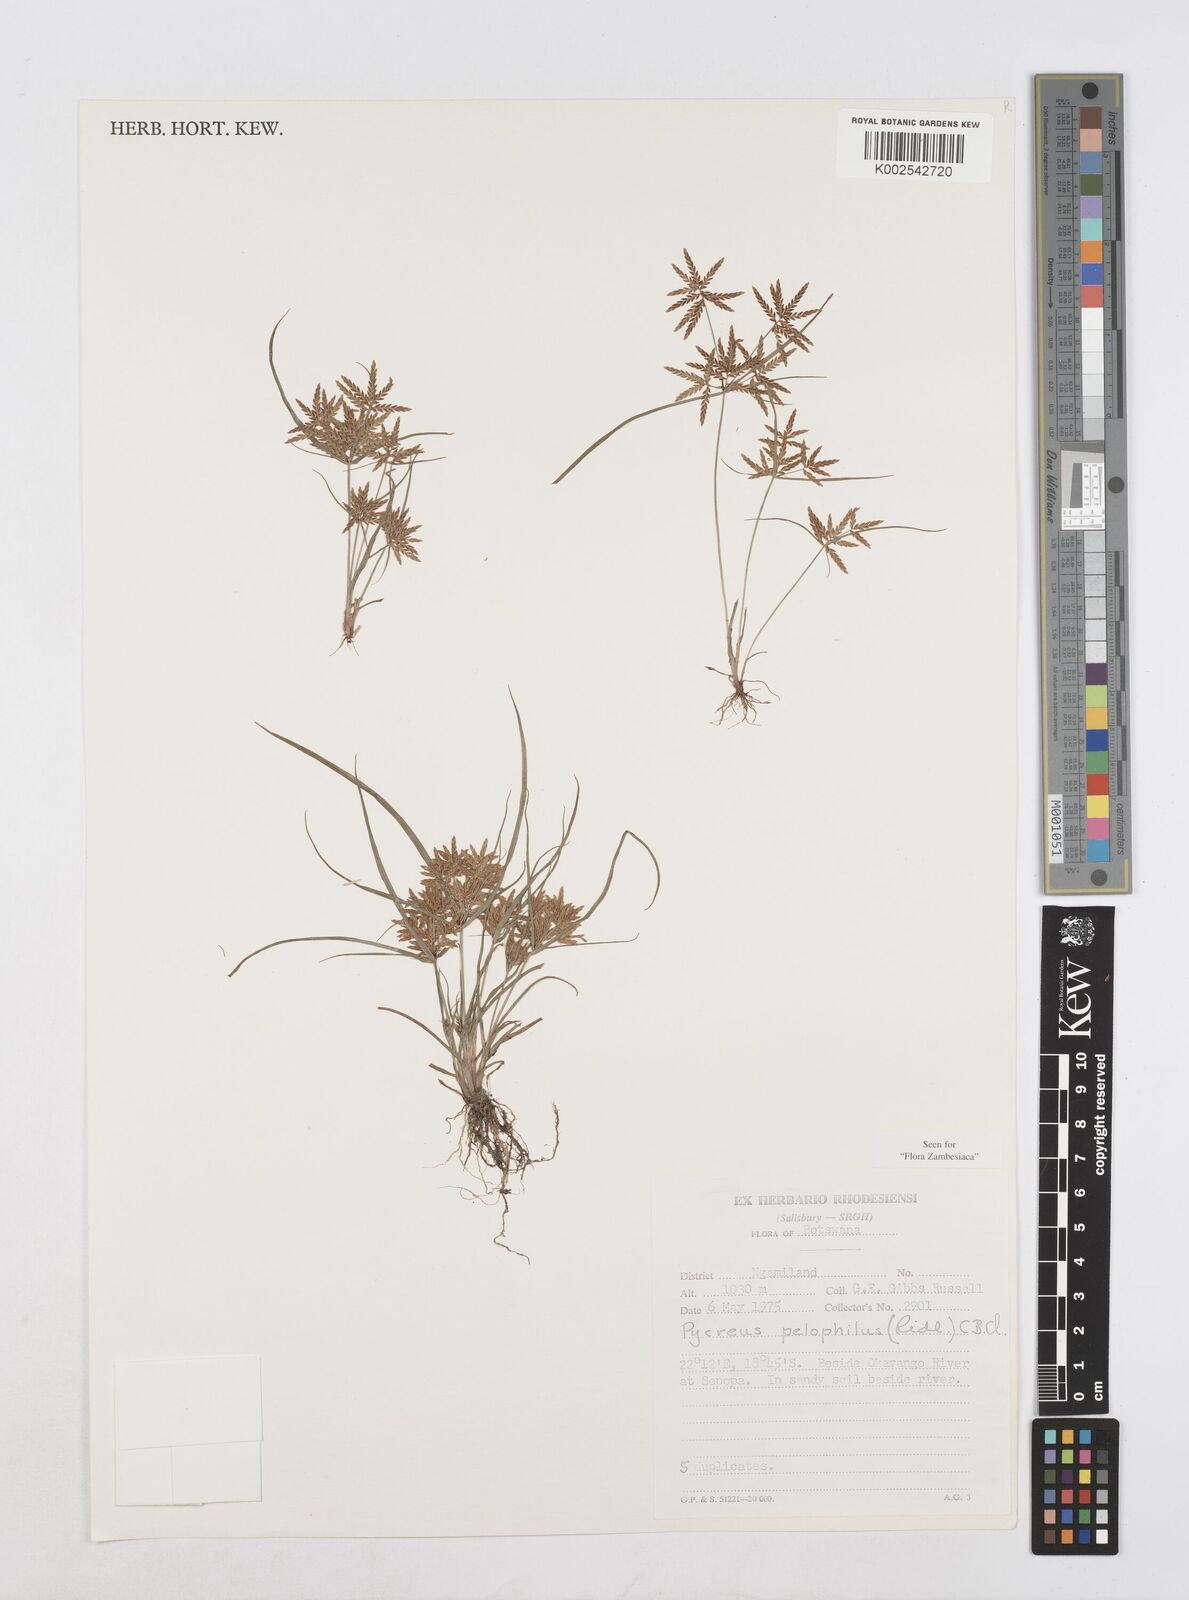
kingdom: Plantae
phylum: Tracheophyta
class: Liliopsida
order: Poales
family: Cyperaceae
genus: Cyperus
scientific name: Cyperus pelophilus
